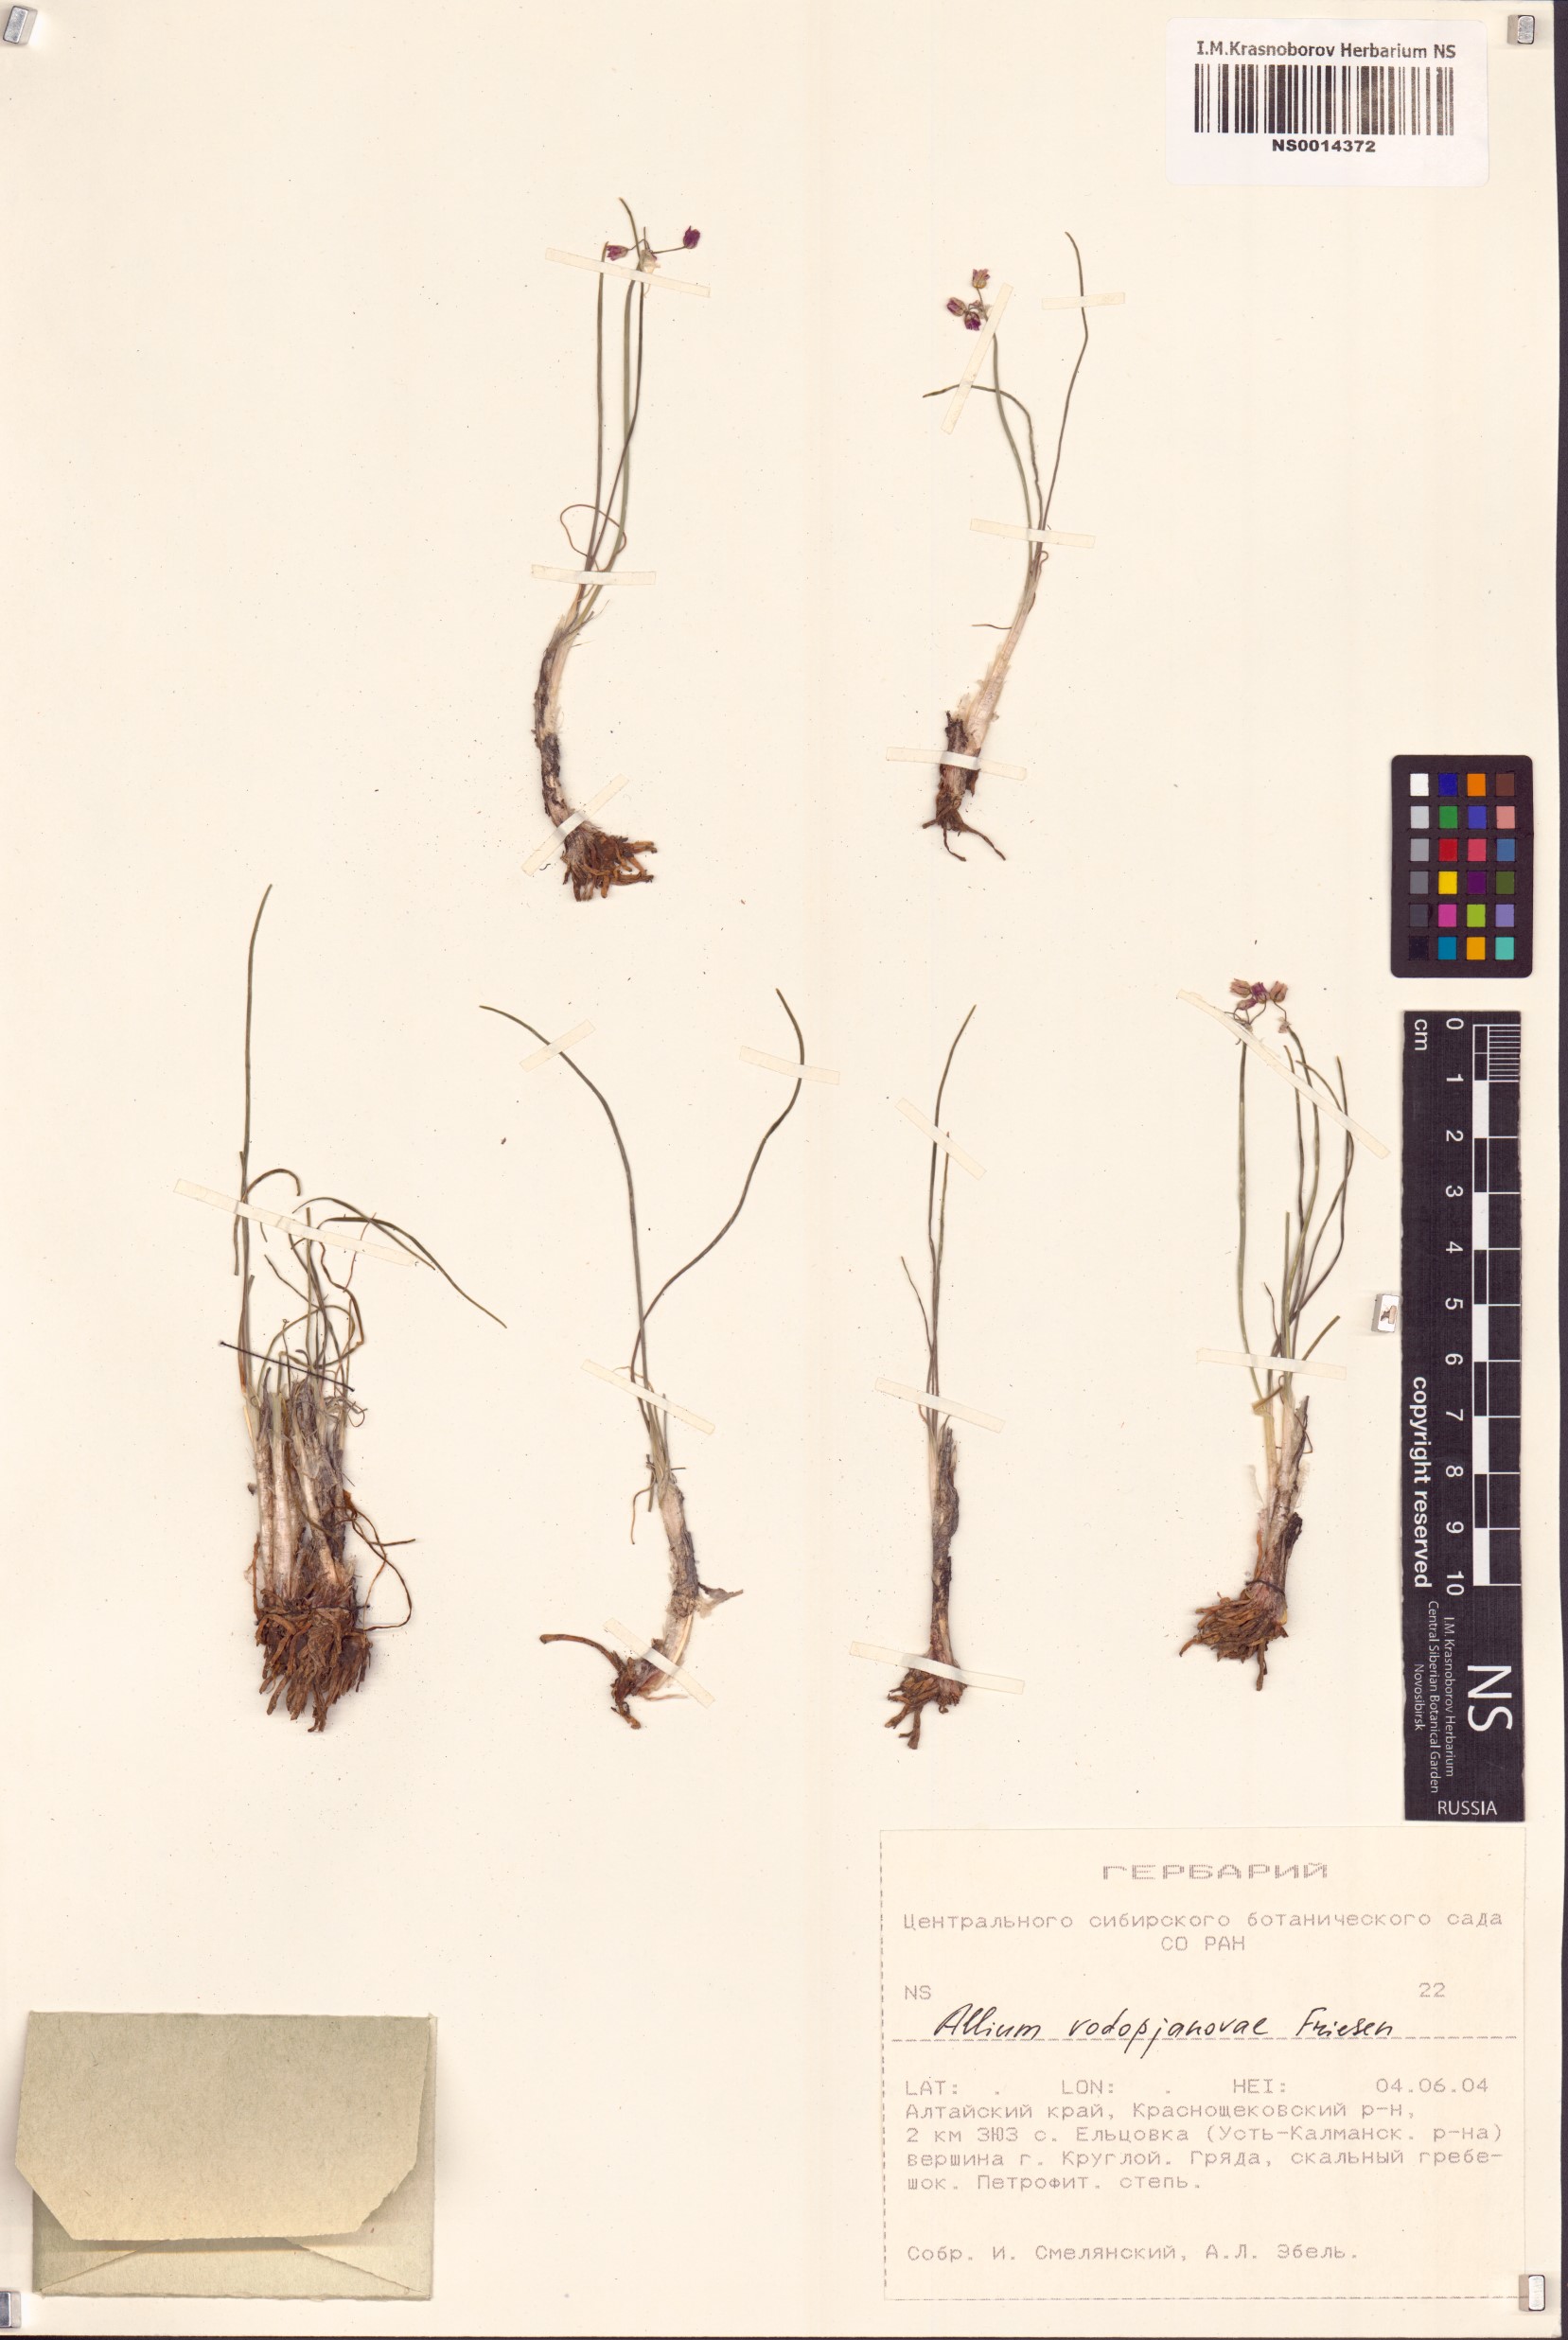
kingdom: Plantae
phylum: Tracheophyta
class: Liliopsida
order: Asparagales
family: Amaryllidaceae
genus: Allium
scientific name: Allium vodopjanovae
